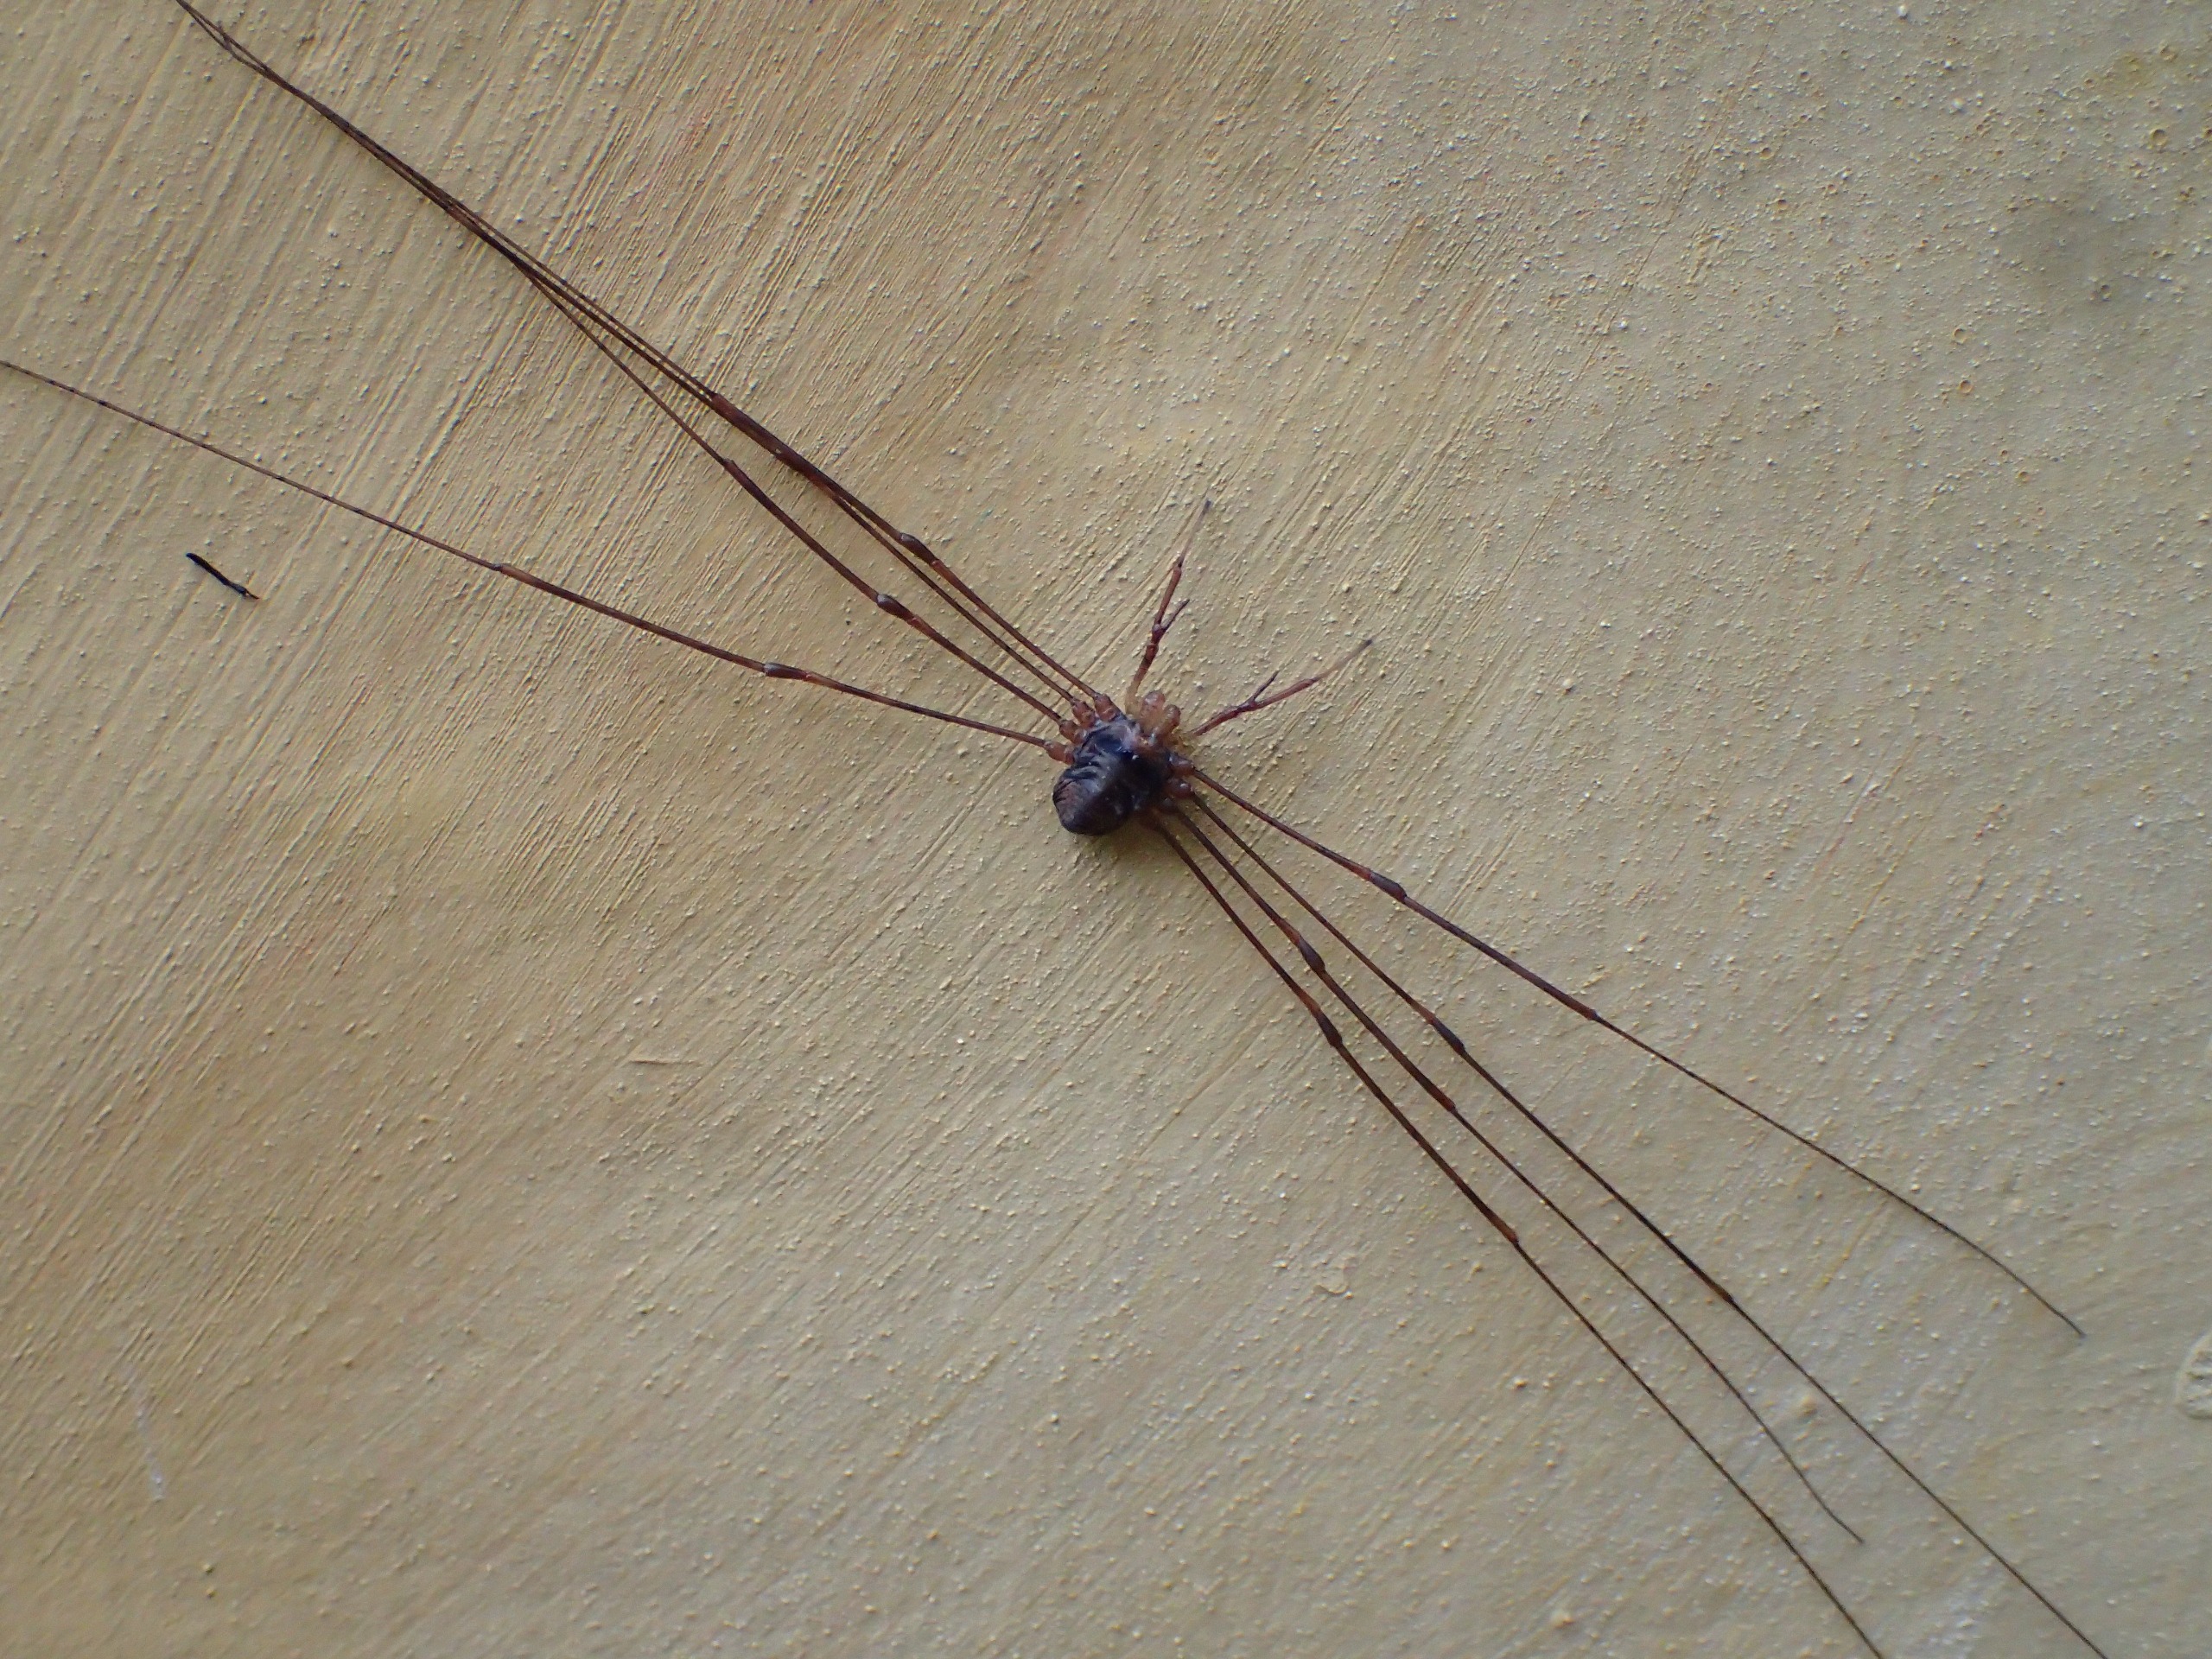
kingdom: Animalia
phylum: Arthropoda
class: Arachnida
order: Opiliones
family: Phalangiidae
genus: Dicranopalpus
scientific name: Dicranopalpus ramosus
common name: Gaffelmejer
